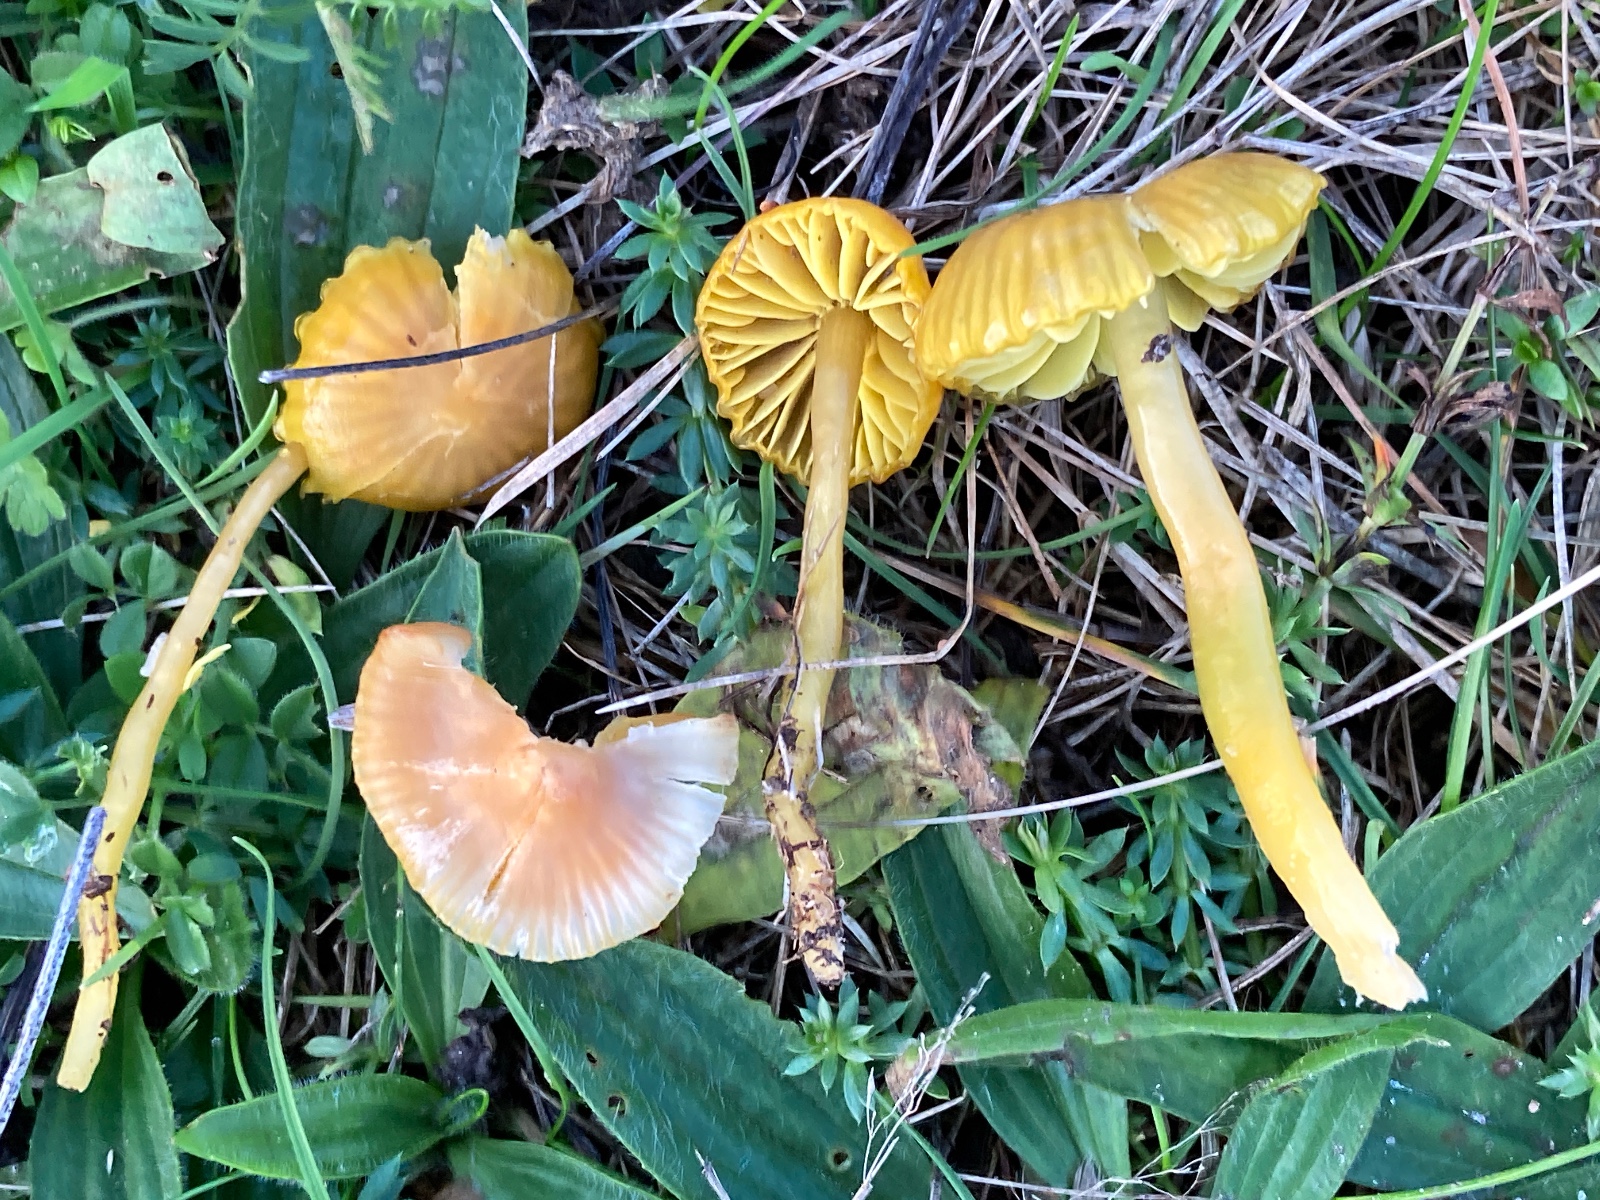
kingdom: Fungi
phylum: Basidiomycota
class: Agaricomycetes
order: Agaricales
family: Hygrophoraceae
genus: Gliophorus
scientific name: Gliophorus psittacinus
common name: papegøje-vokshat
